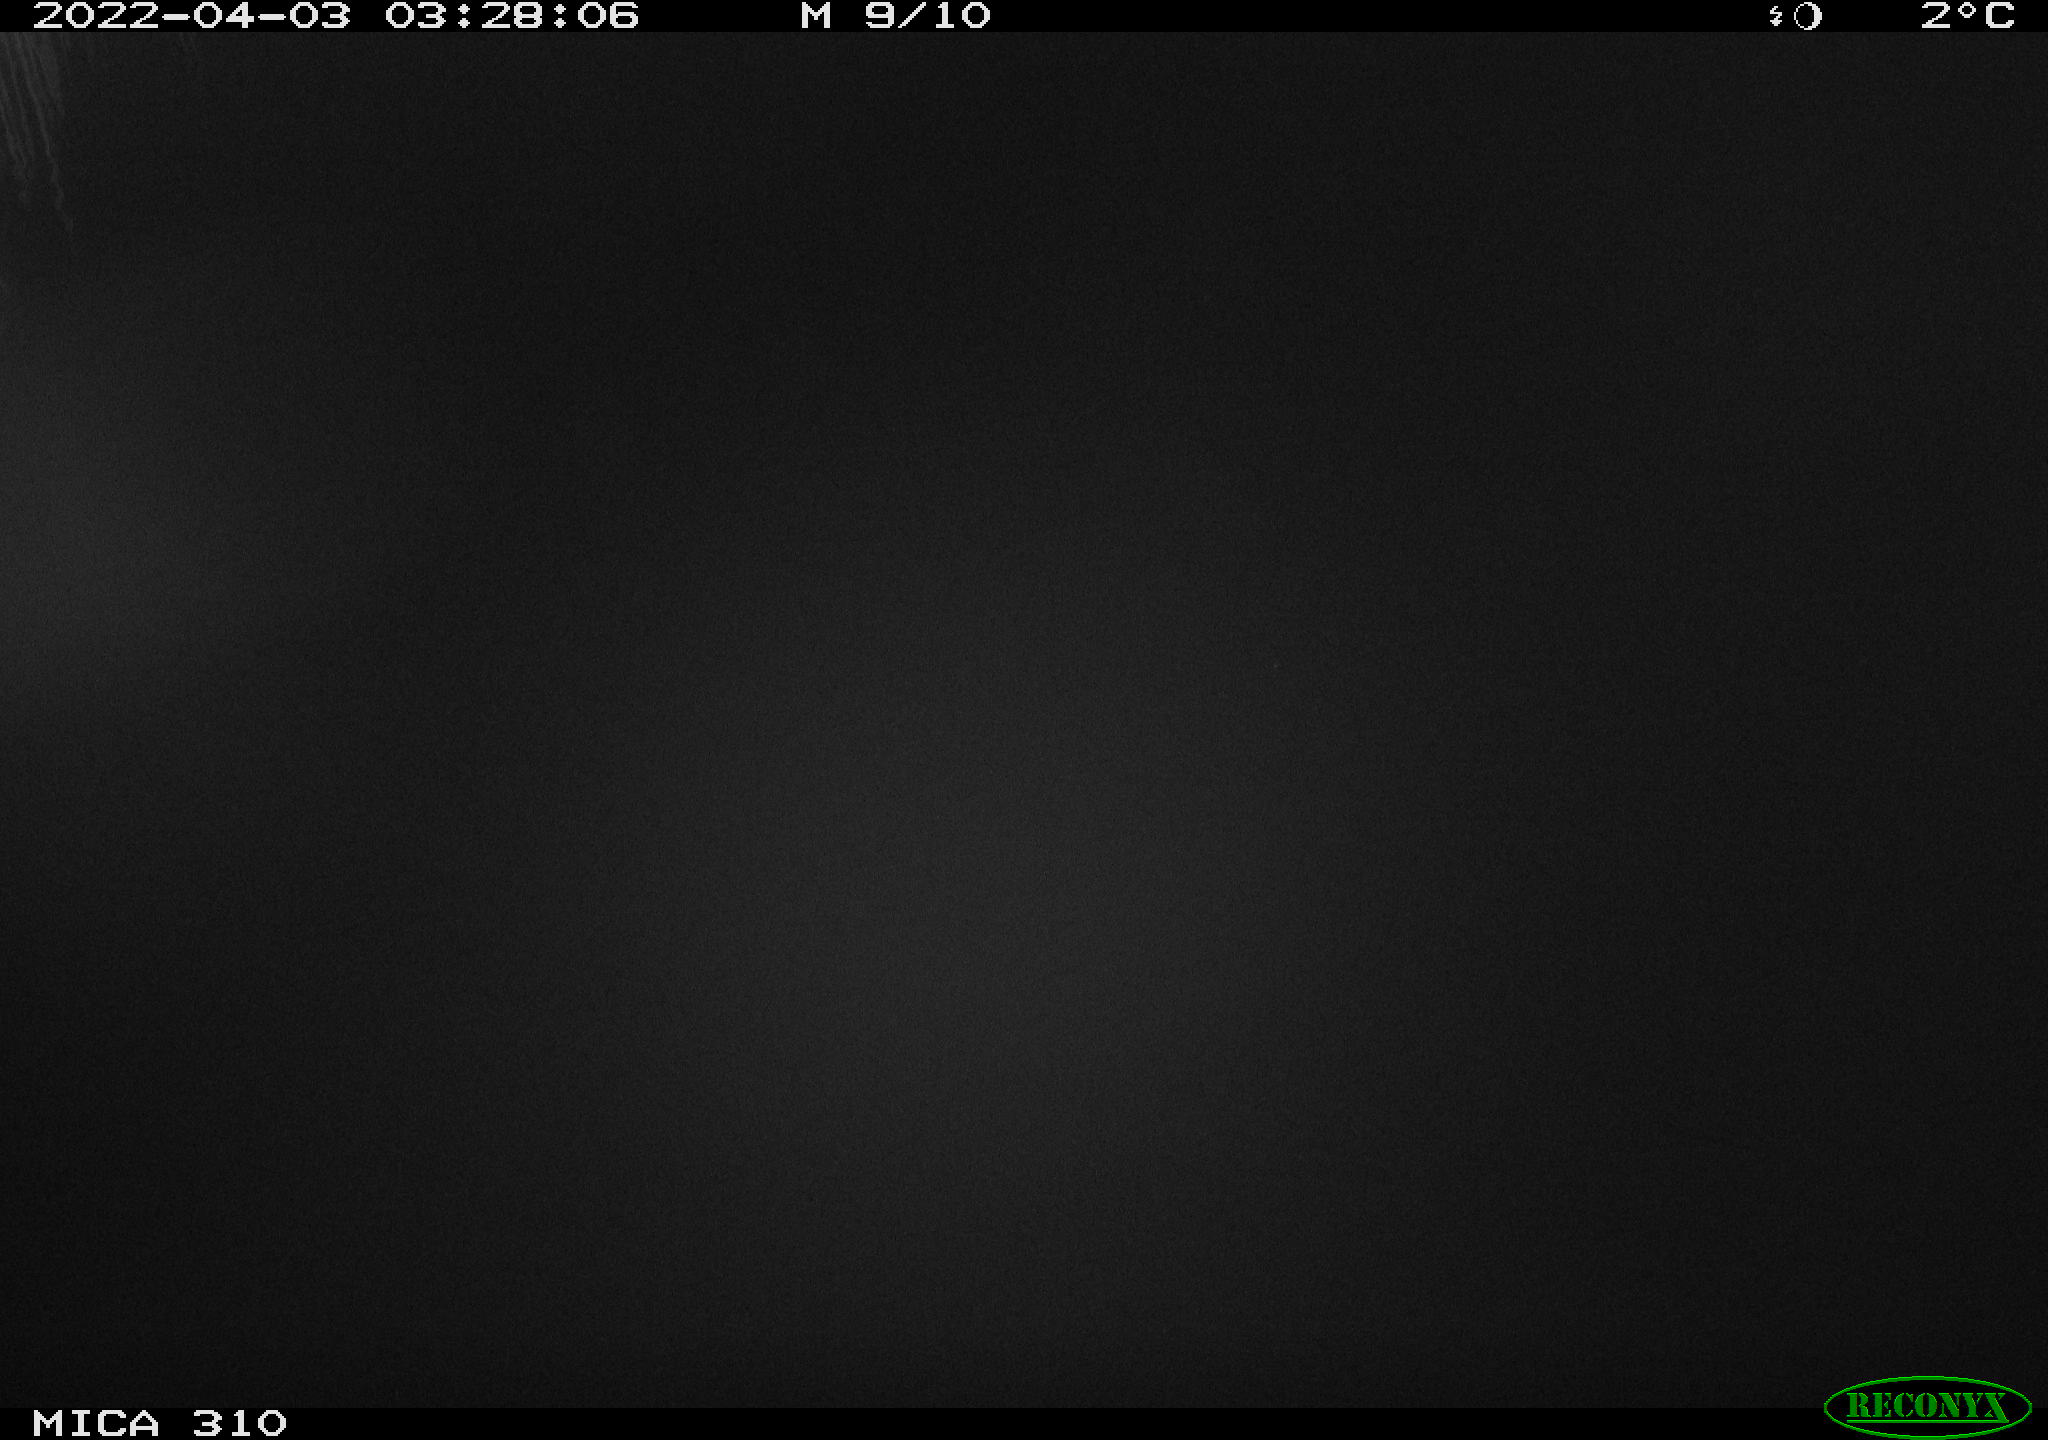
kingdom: Animalia
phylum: Chordata
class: Aves
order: Anseriformes
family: Anatidae
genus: Anas
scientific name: Anas platyrhynchos
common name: Mallard
